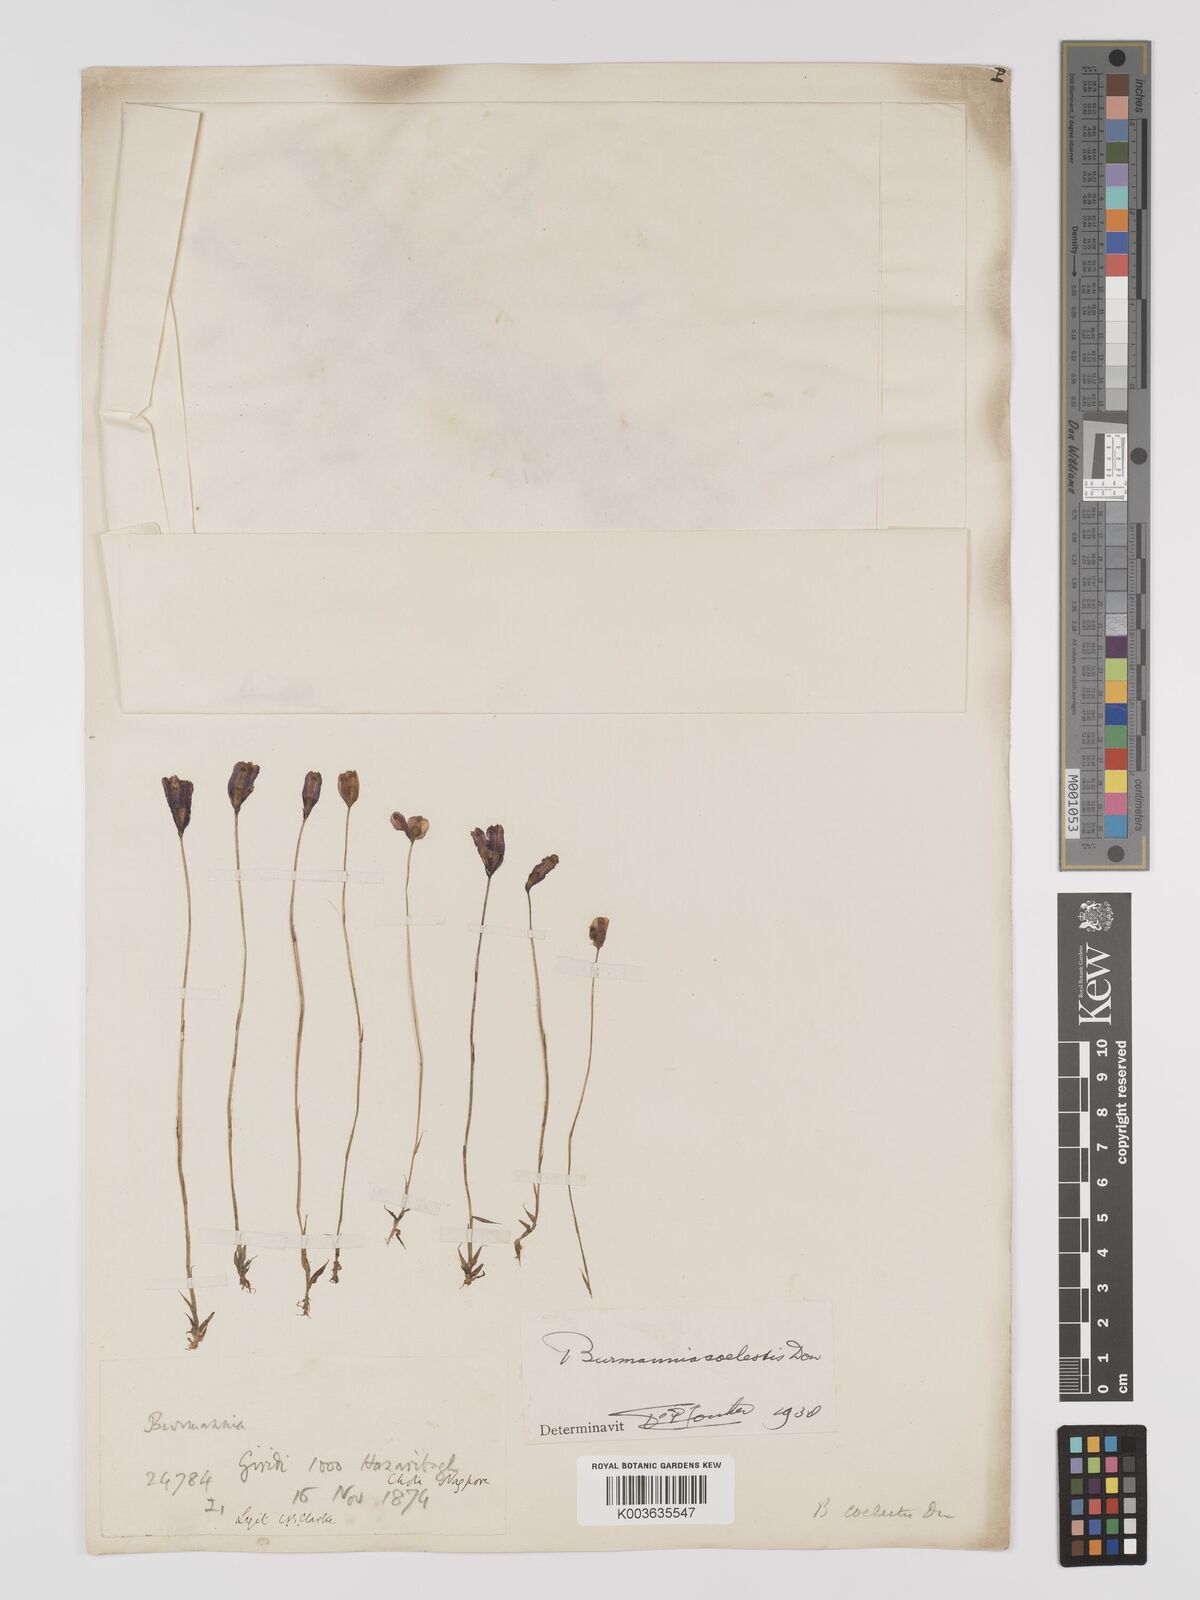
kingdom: Plantae
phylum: Tracheophyta
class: Liliopsida
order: Dioscoreales
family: Burmanniaceae
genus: Burmannia
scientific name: Burmannia coelestis
